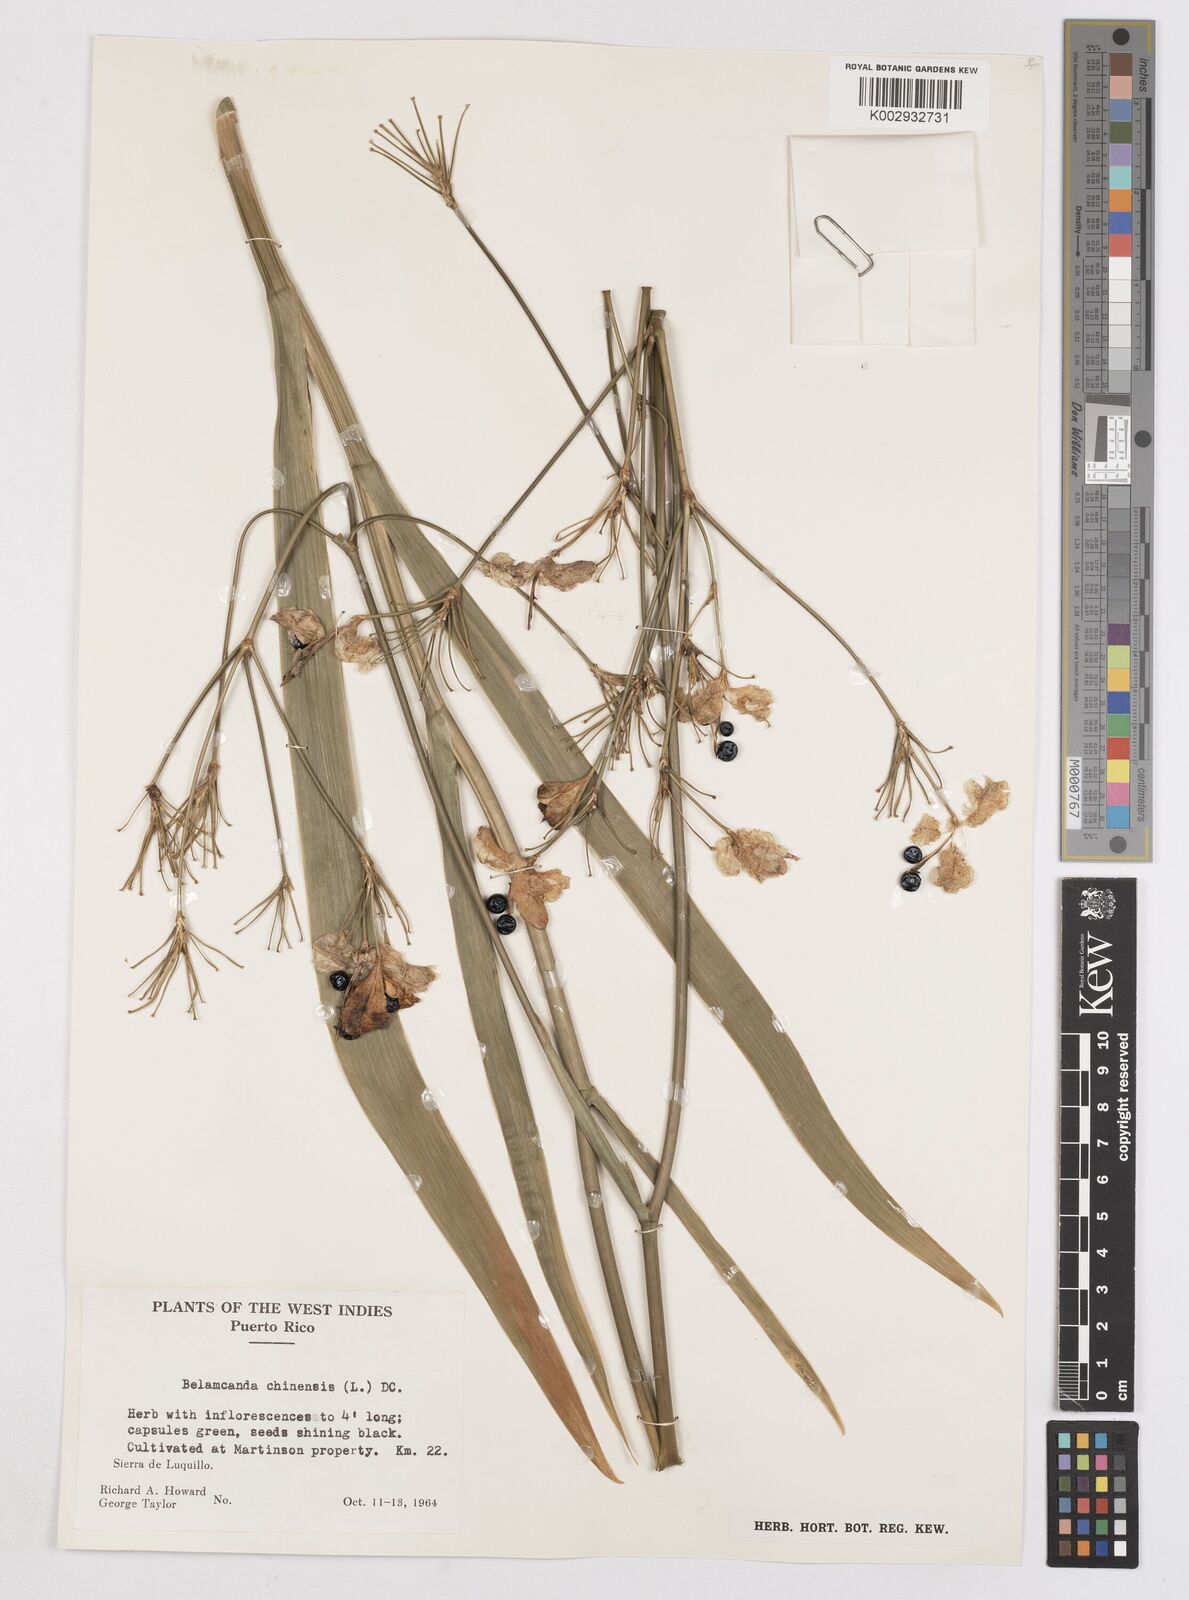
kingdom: Plantae
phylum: Tracheophyta
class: Liliopsida
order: Asparagales
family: Iridaceae
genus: Iris
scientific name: Iris susiana
